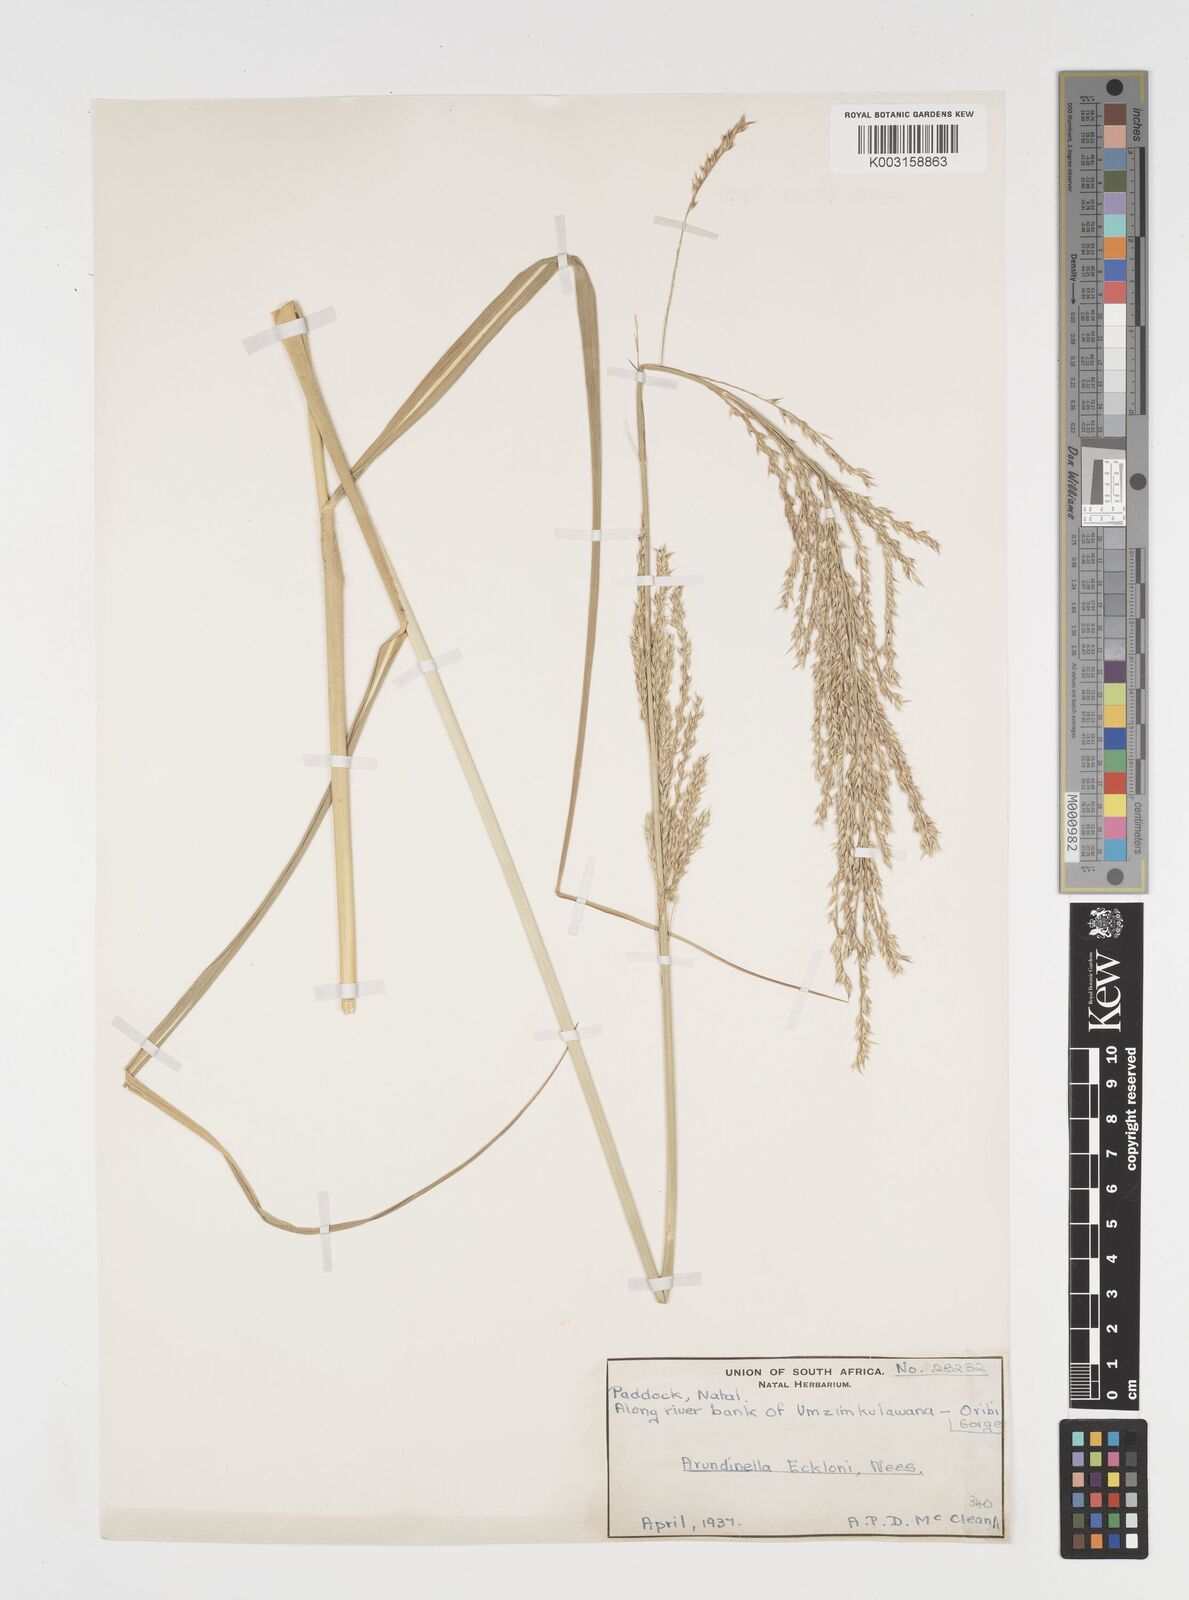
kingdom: Plantae
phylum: Tracheophyta
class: Liliopsida
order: Poales
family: Poaceae
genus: Arundinella
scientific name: Arundinella nepalensis
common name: Reed grass
